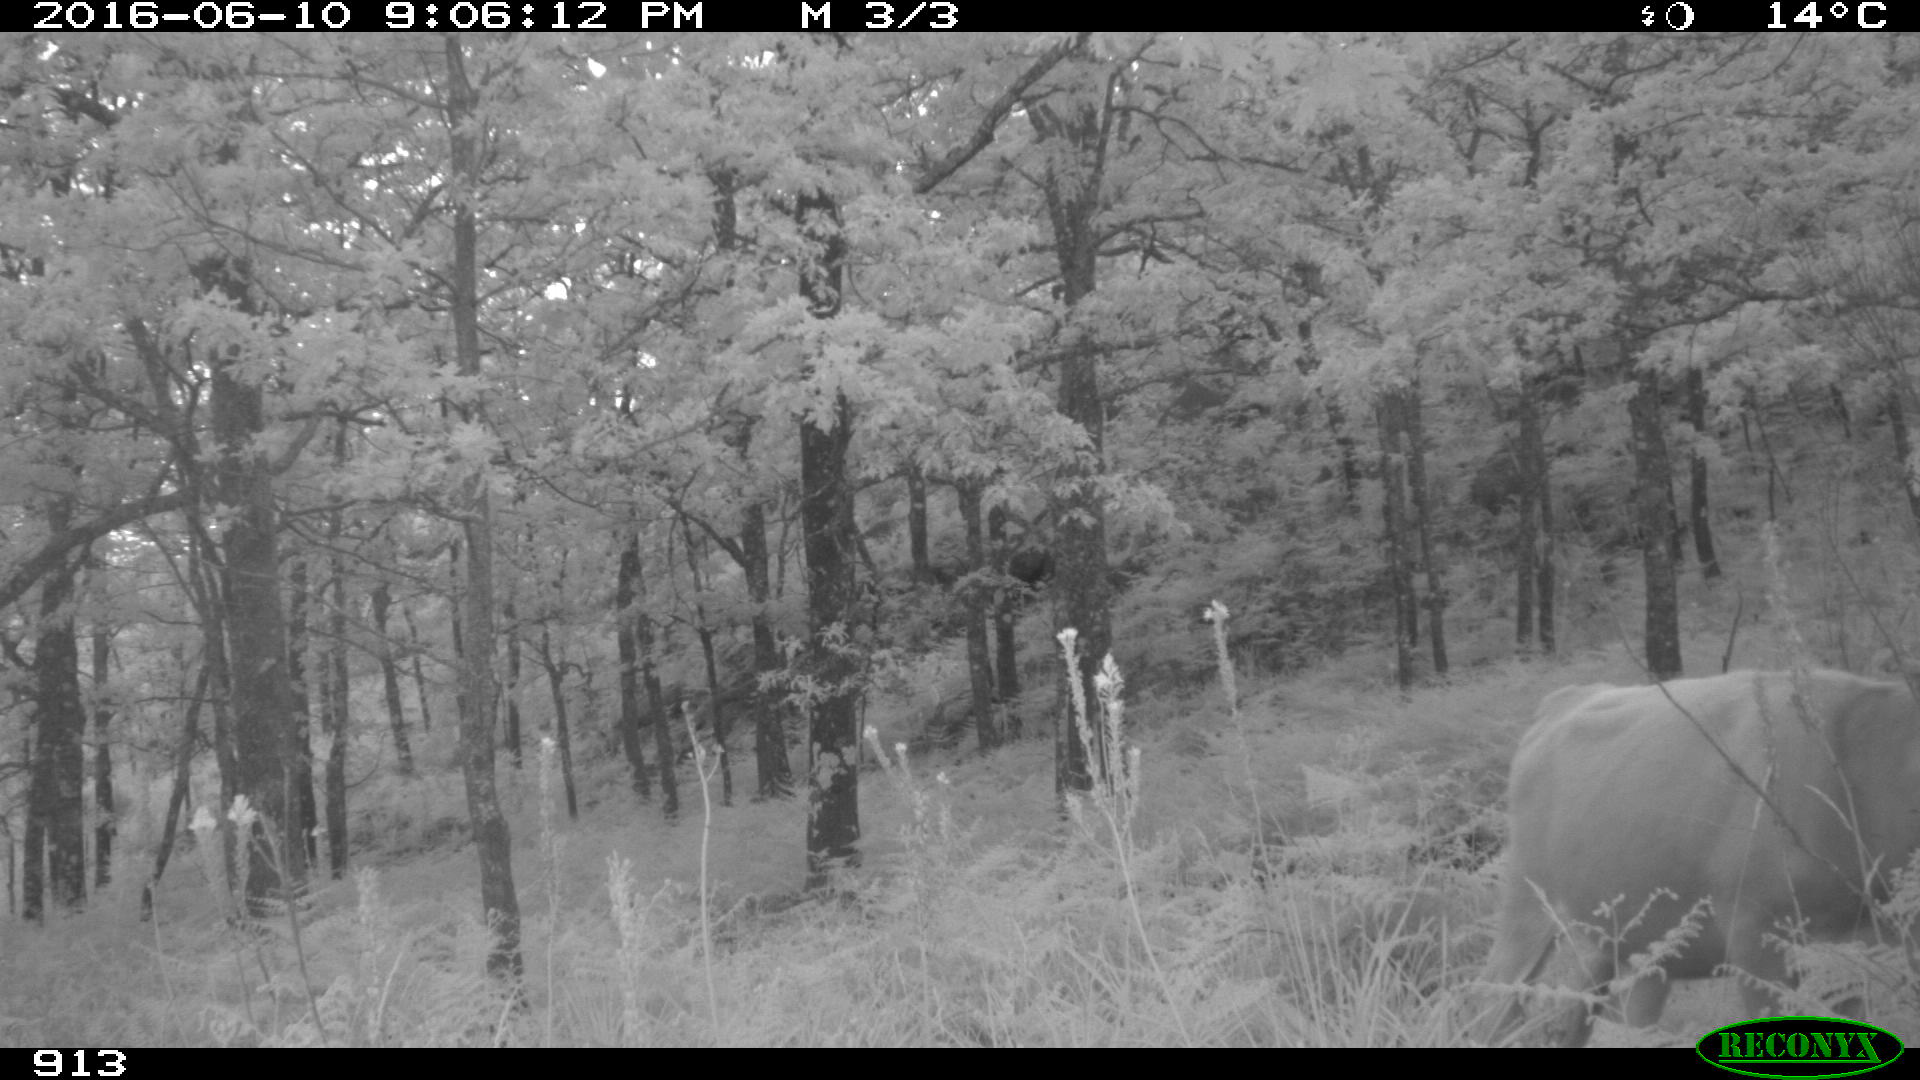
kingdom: Animalia
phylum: Chordata
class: Mammalia
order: Artiodactyla
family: Bovidae
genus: Bos
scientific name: Bos taurus
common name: Domesticated cattle
